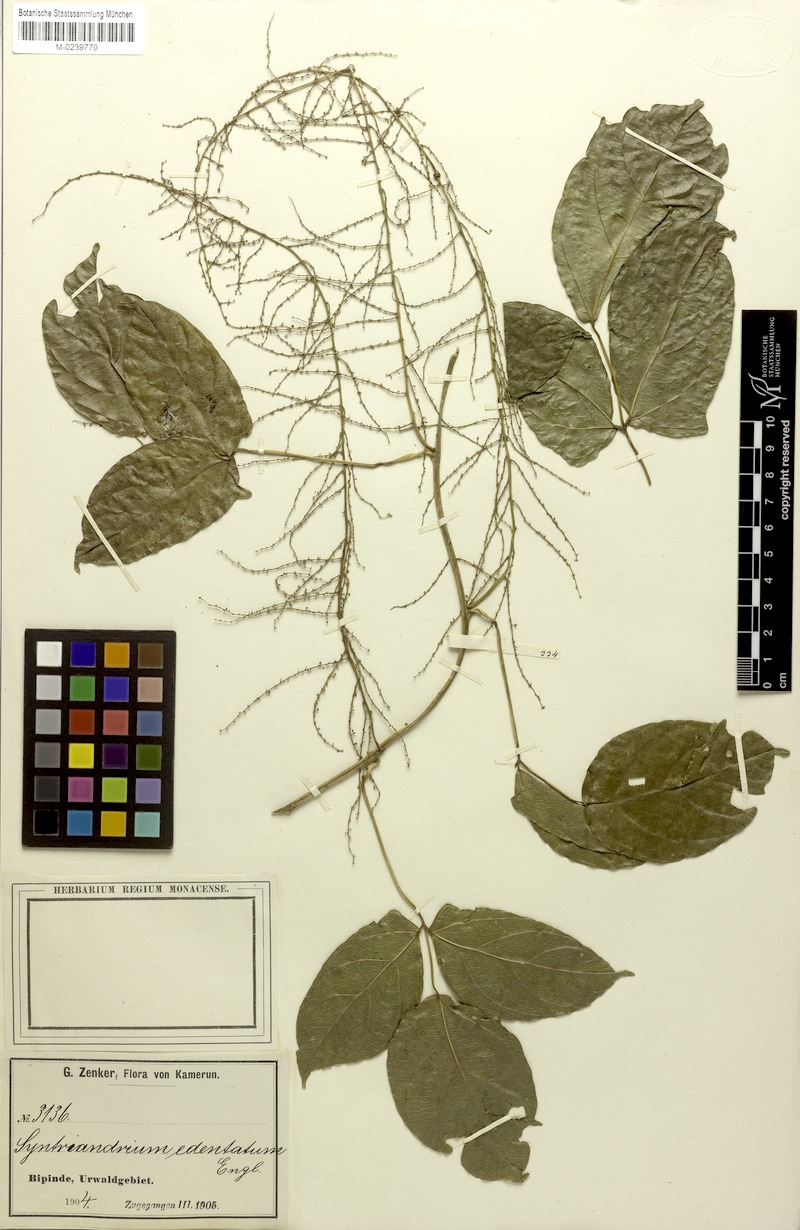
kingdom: Plantae
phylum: Tracheophyta
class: Magnoliopsida
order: Ranunculales
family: Menispermaceae
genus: Syntriandrium
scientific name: Syntriandrium preussii
